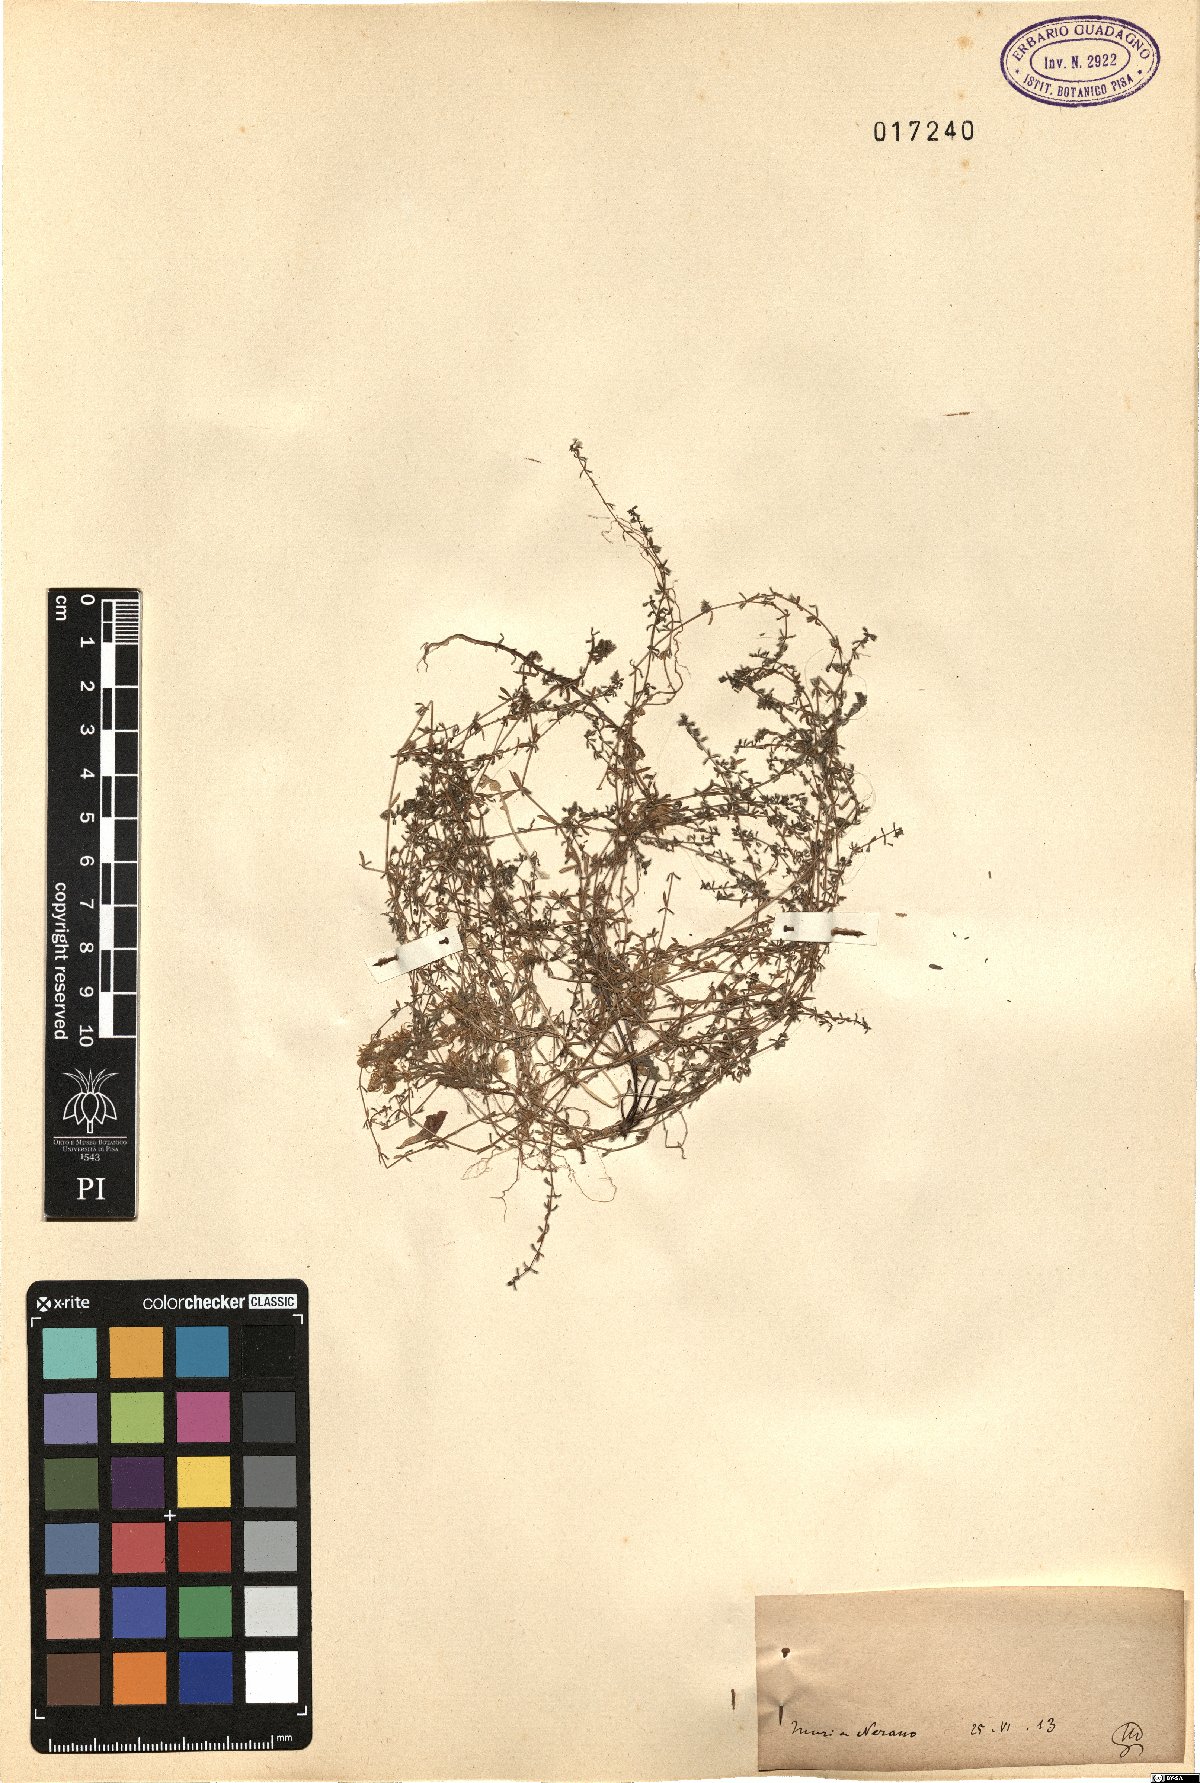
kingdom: Plantae
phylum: Tracheophyta
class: Magnoliopsida
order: Gentianales
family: Rubiaceae
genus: Galium
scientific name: Galium
